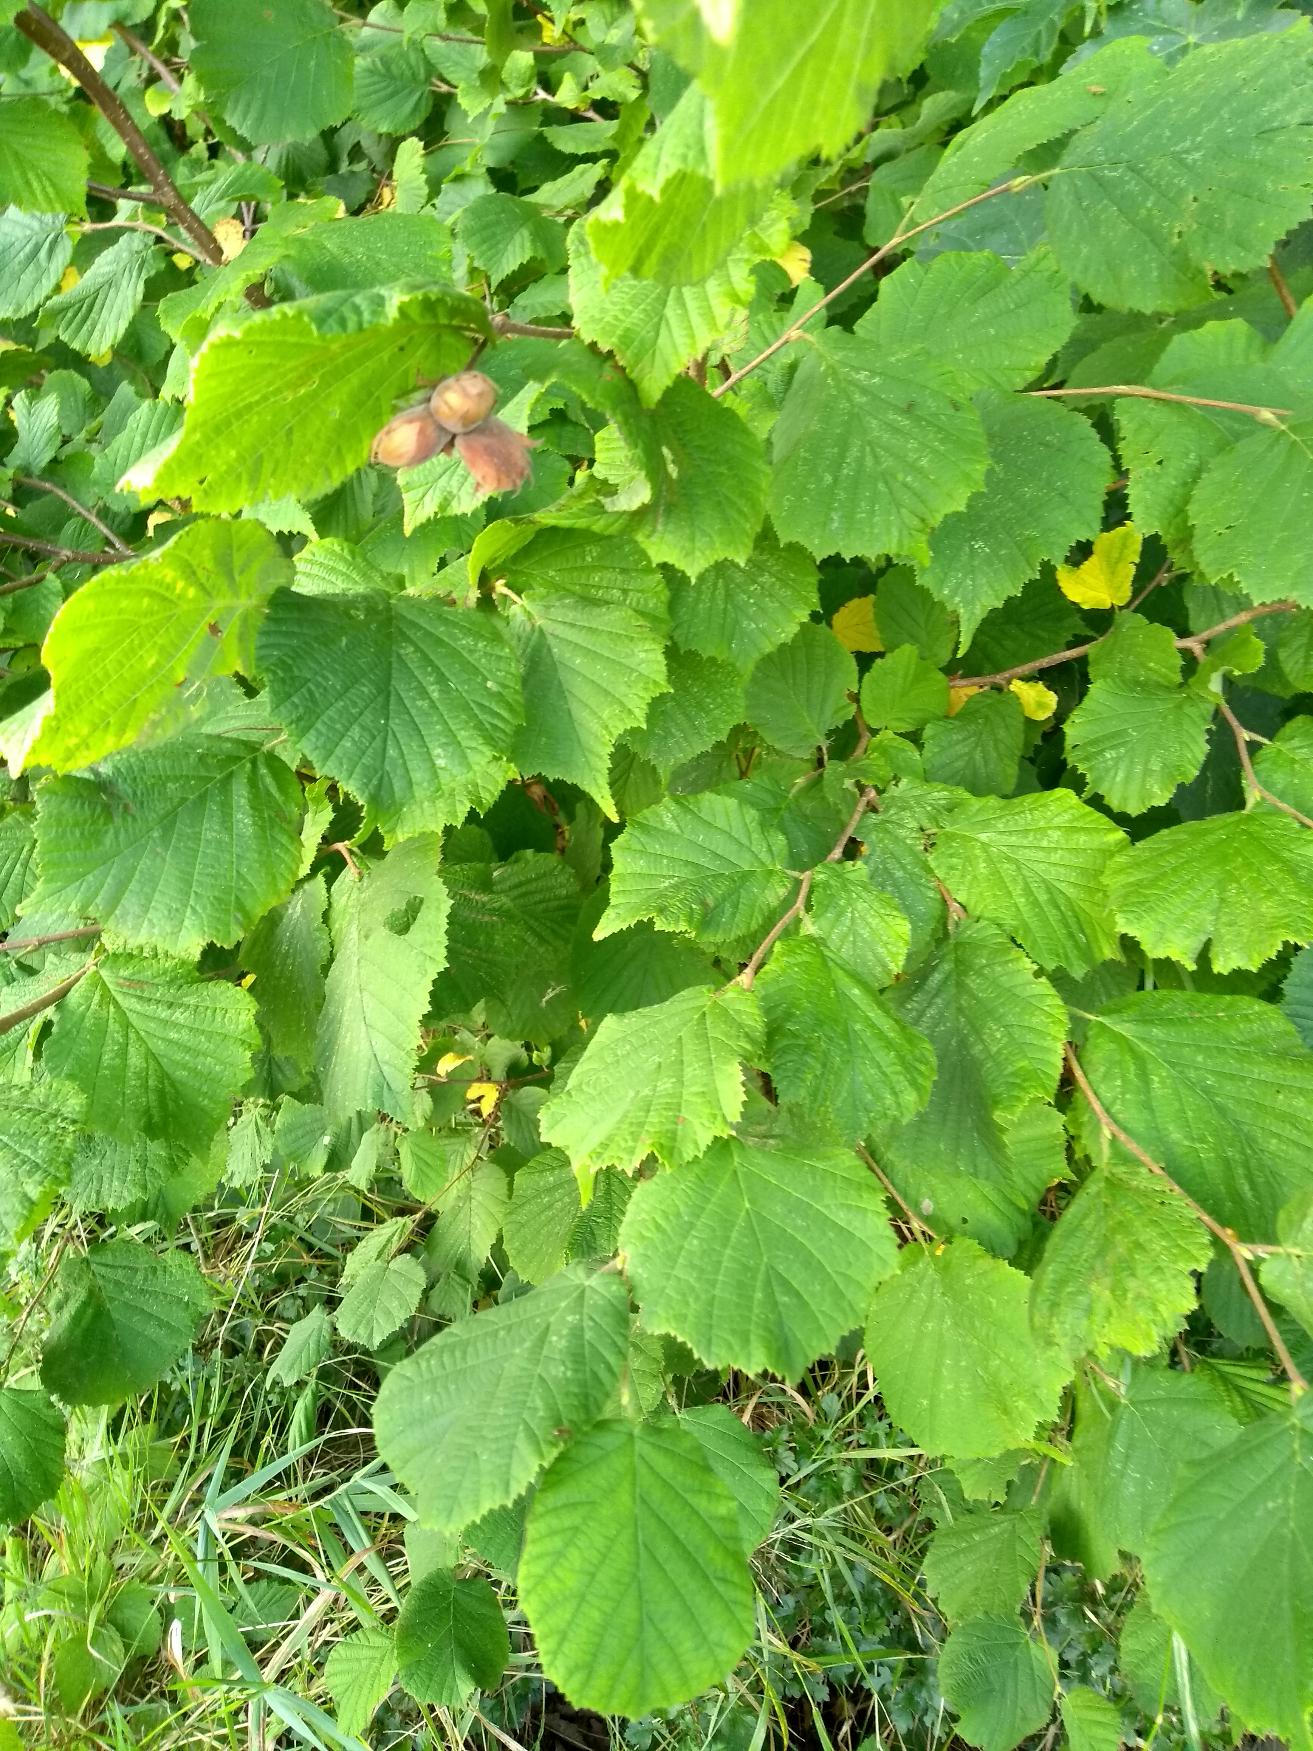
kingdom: Plantae
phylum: Tracheophyta
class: Magnoliopsida
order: Fagales
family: Betulaceae
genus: Corylus
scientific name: Corylus avellana
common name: Hassel
